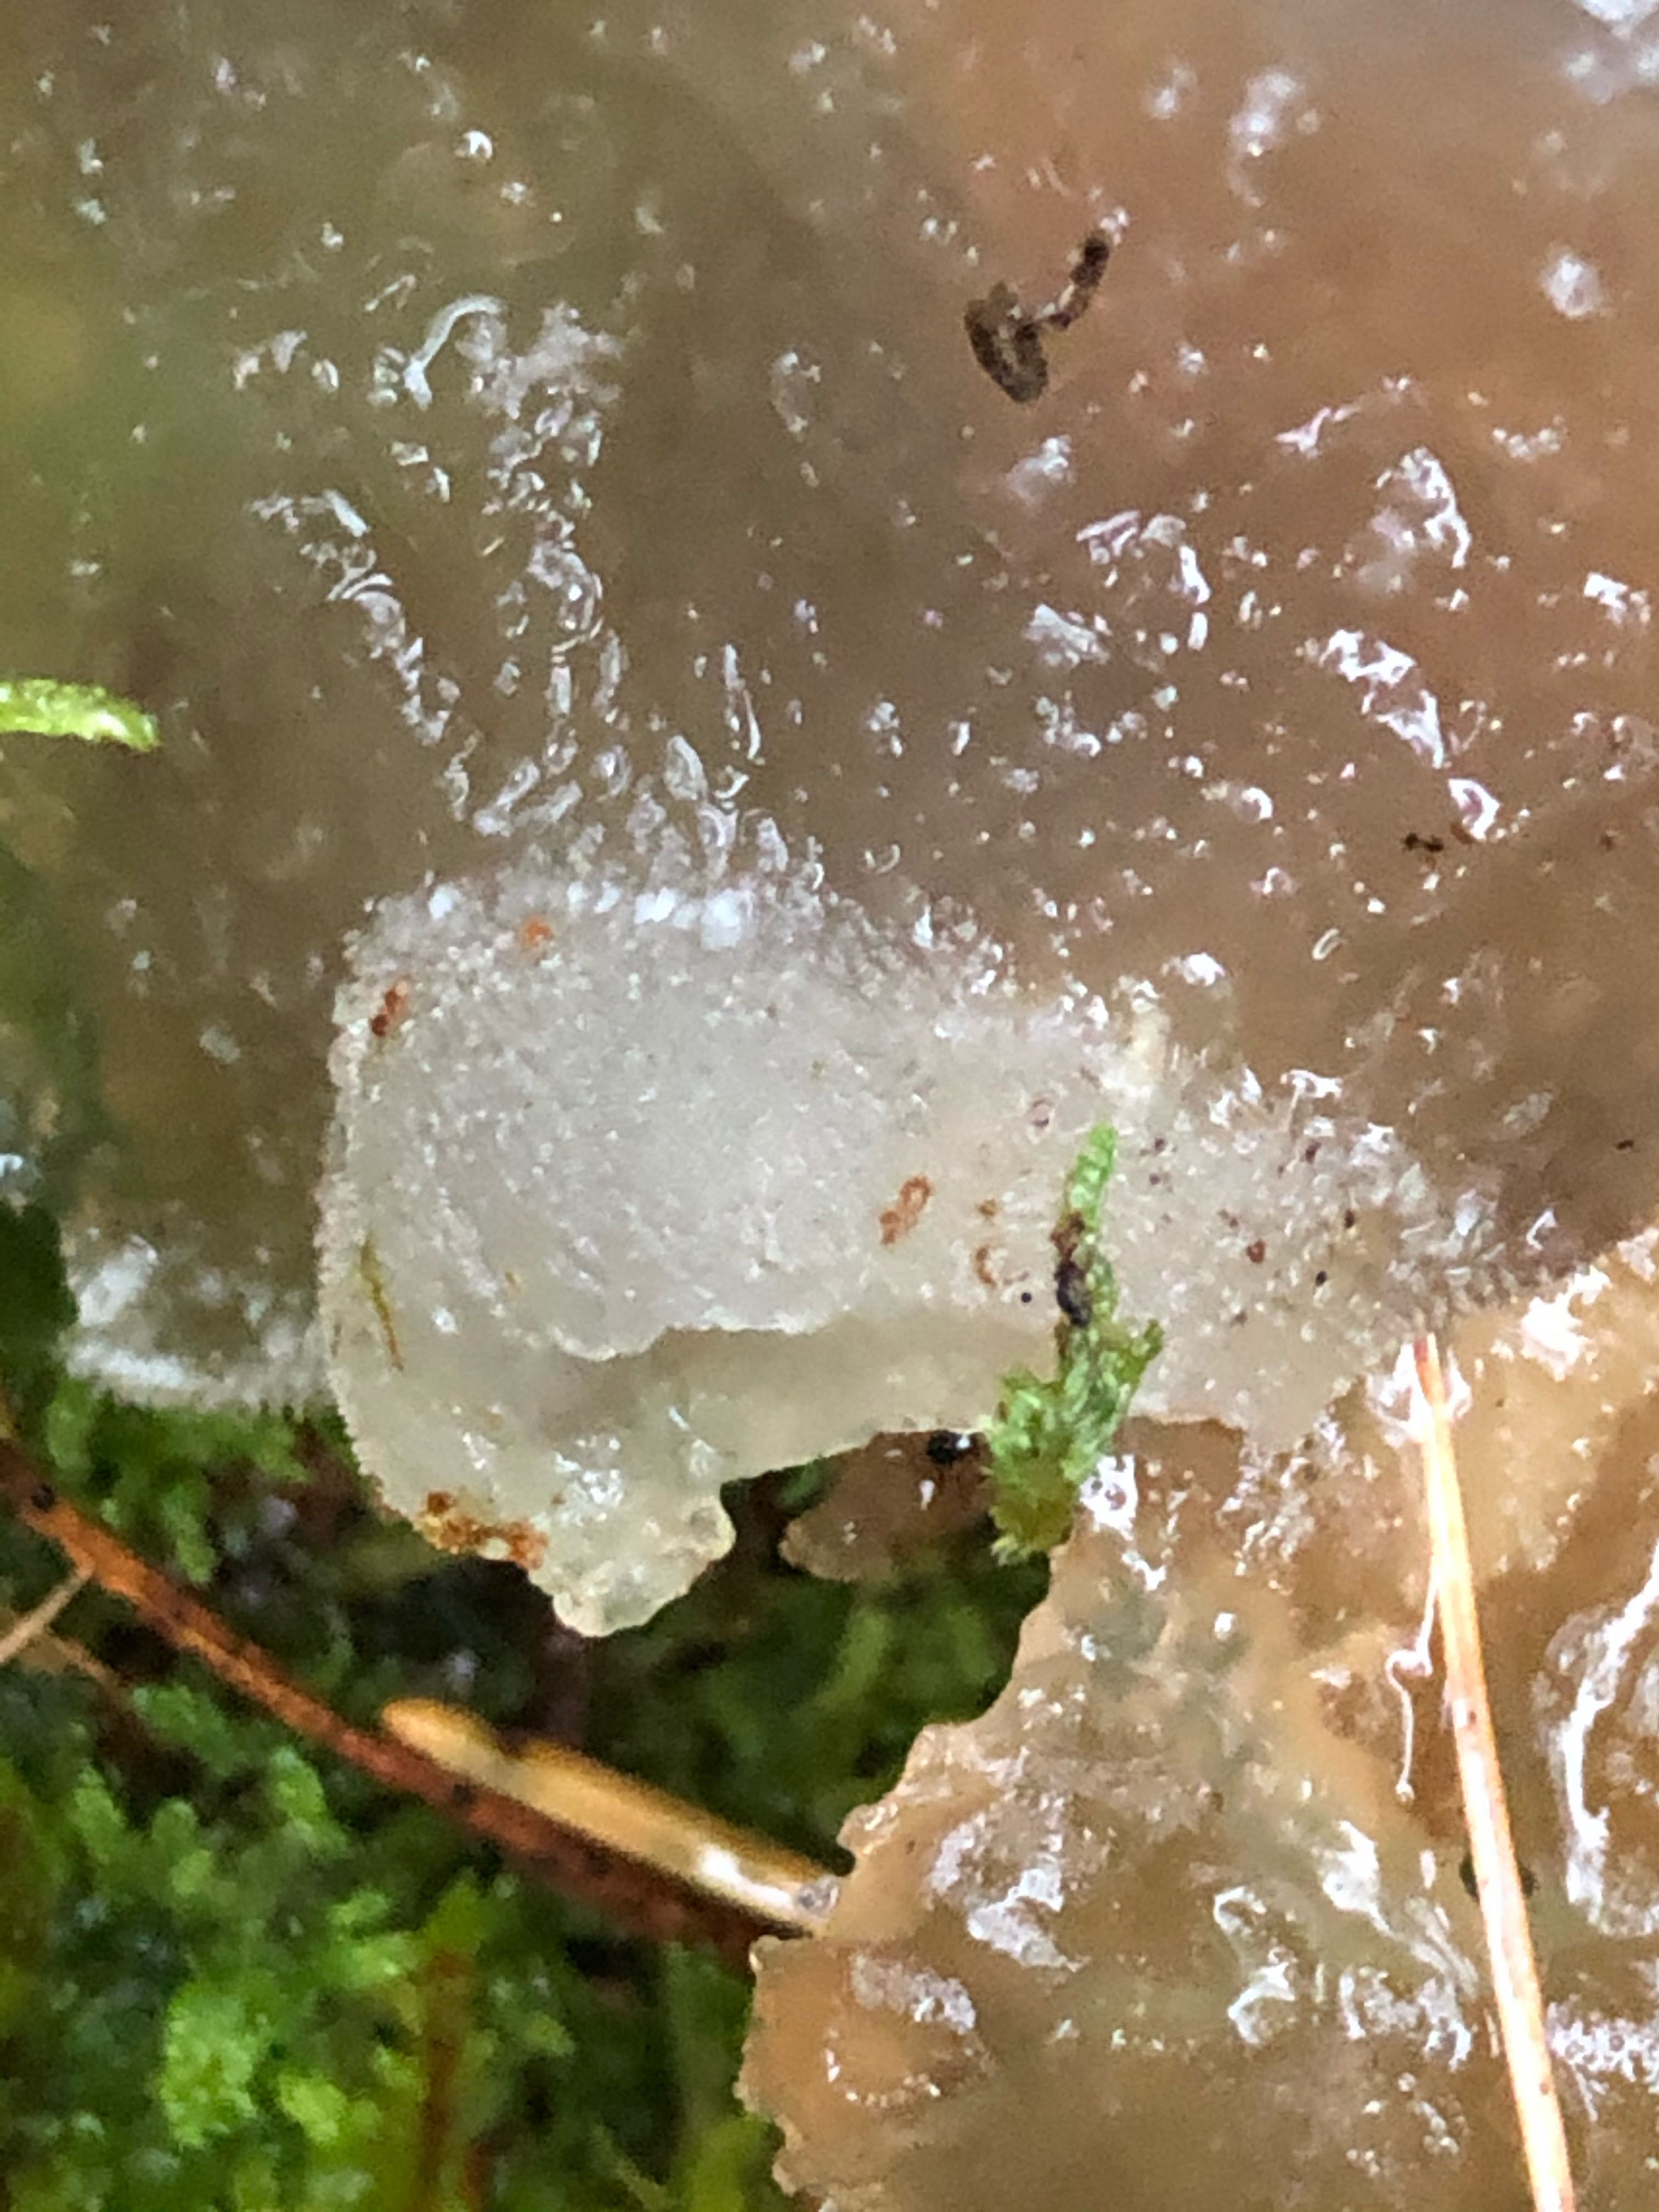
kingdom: Fungi
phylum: Basidiomycota
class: Agaricomycetes
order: Auriculariales
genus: Pseudohydnum
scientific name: Pseudohydnum gelatinosum
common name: bævretand
